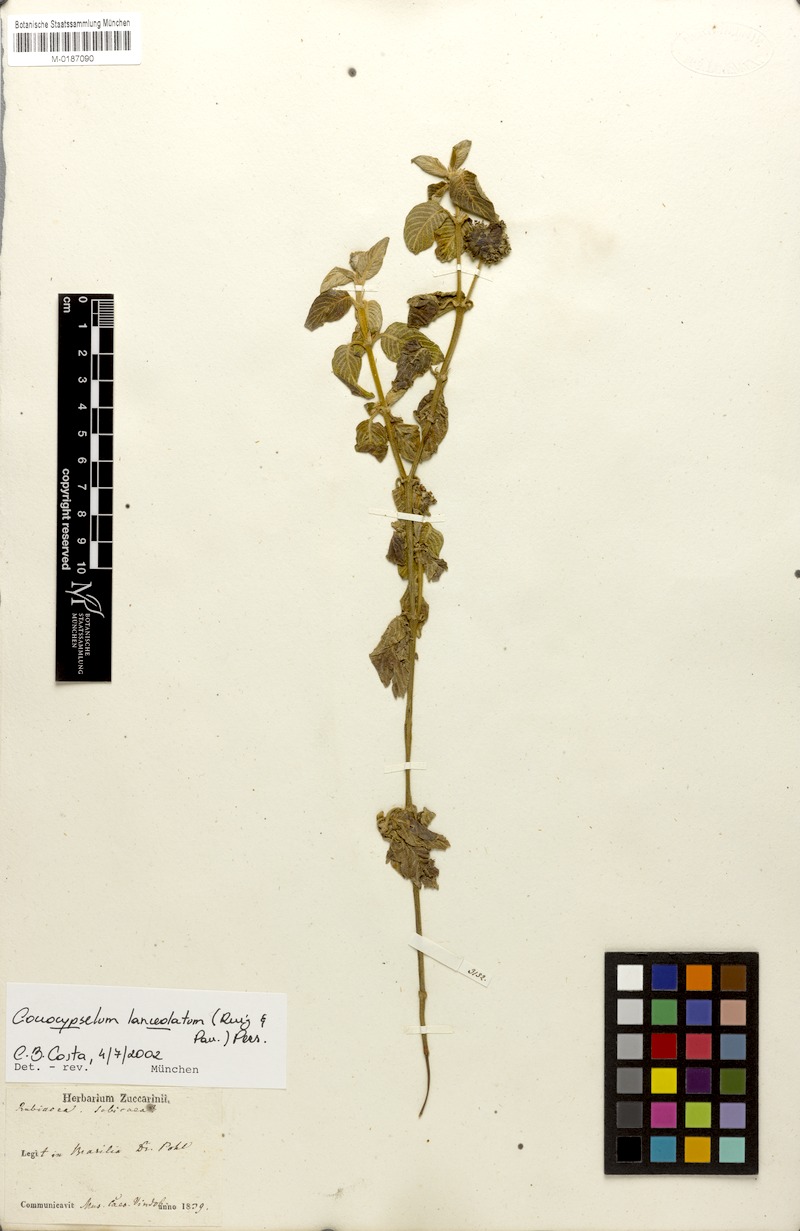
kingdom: Plantae
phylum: Tracheophyta
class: Magnoliopsida
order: Gentianales
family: Rubiaceae
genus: Coccocypselum
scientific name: Coccocypselum lanceolatum
